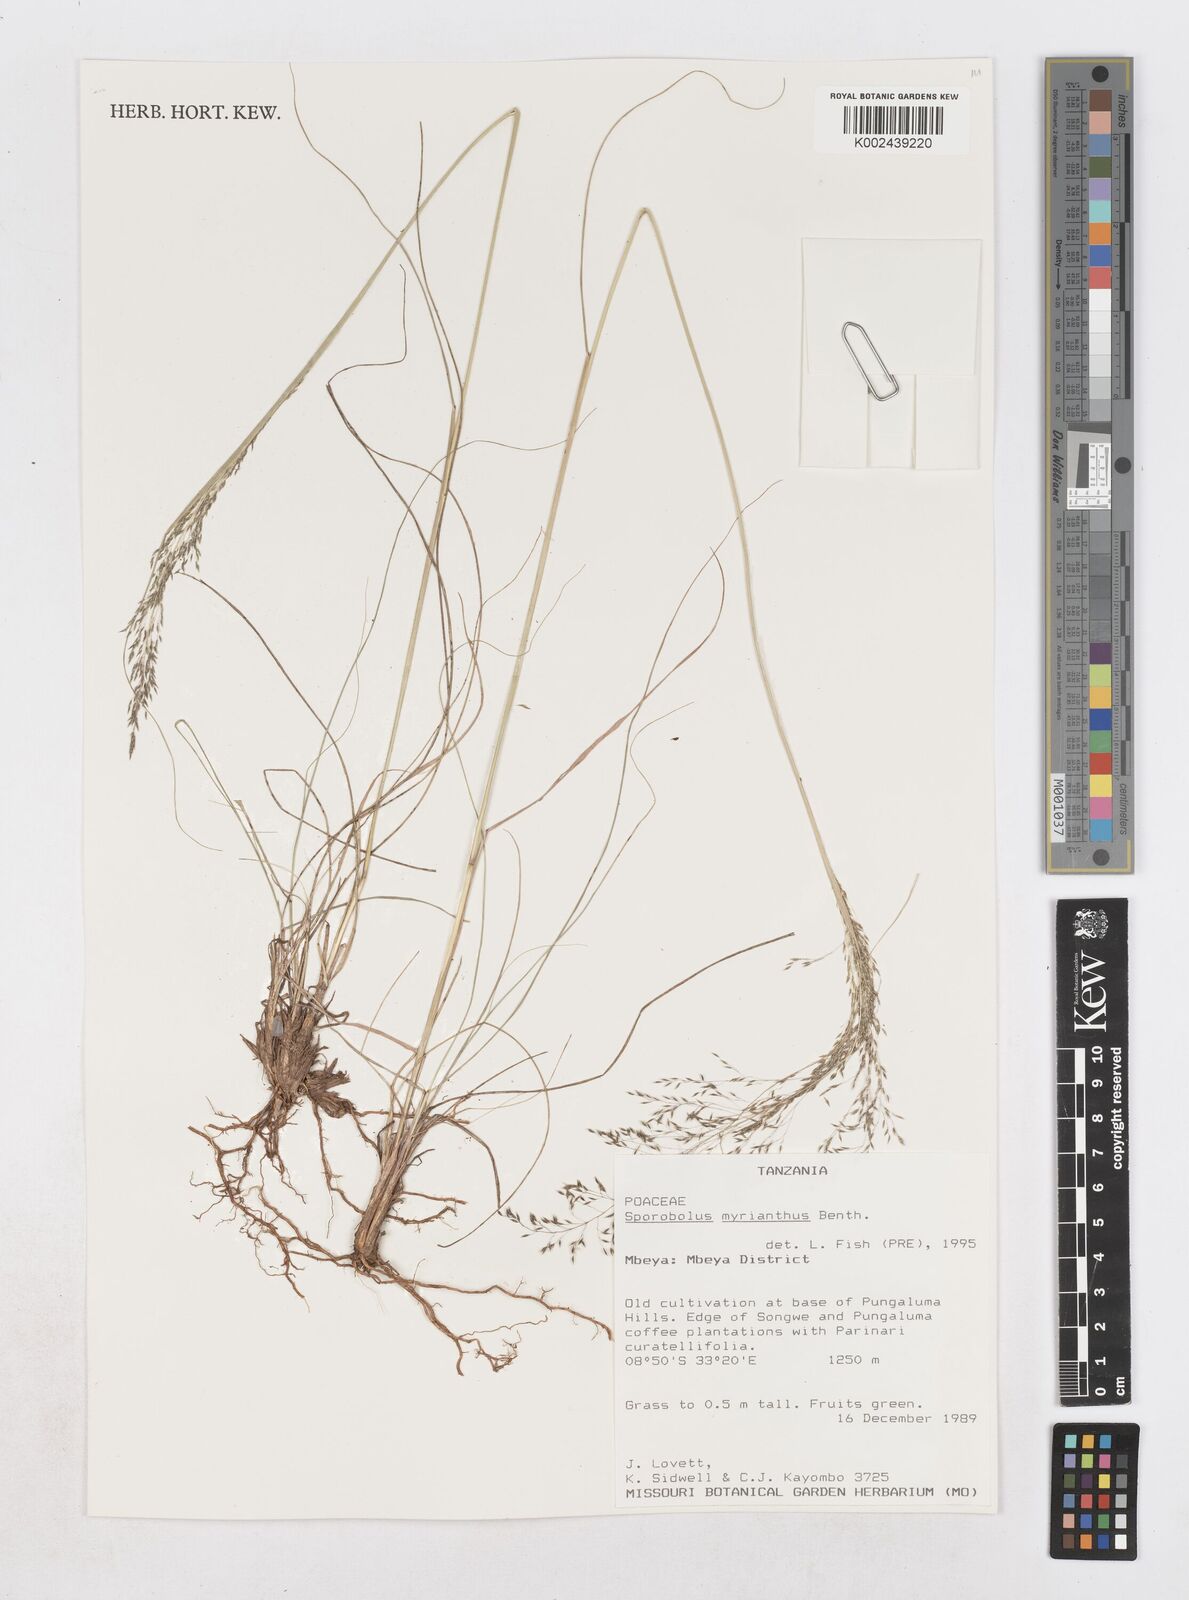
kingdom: Plantae
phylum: Tracheophyta
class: Liliopsida
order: Poales
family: Poaceae
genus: Sporobolus
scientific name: Sporobolus myrianthus
